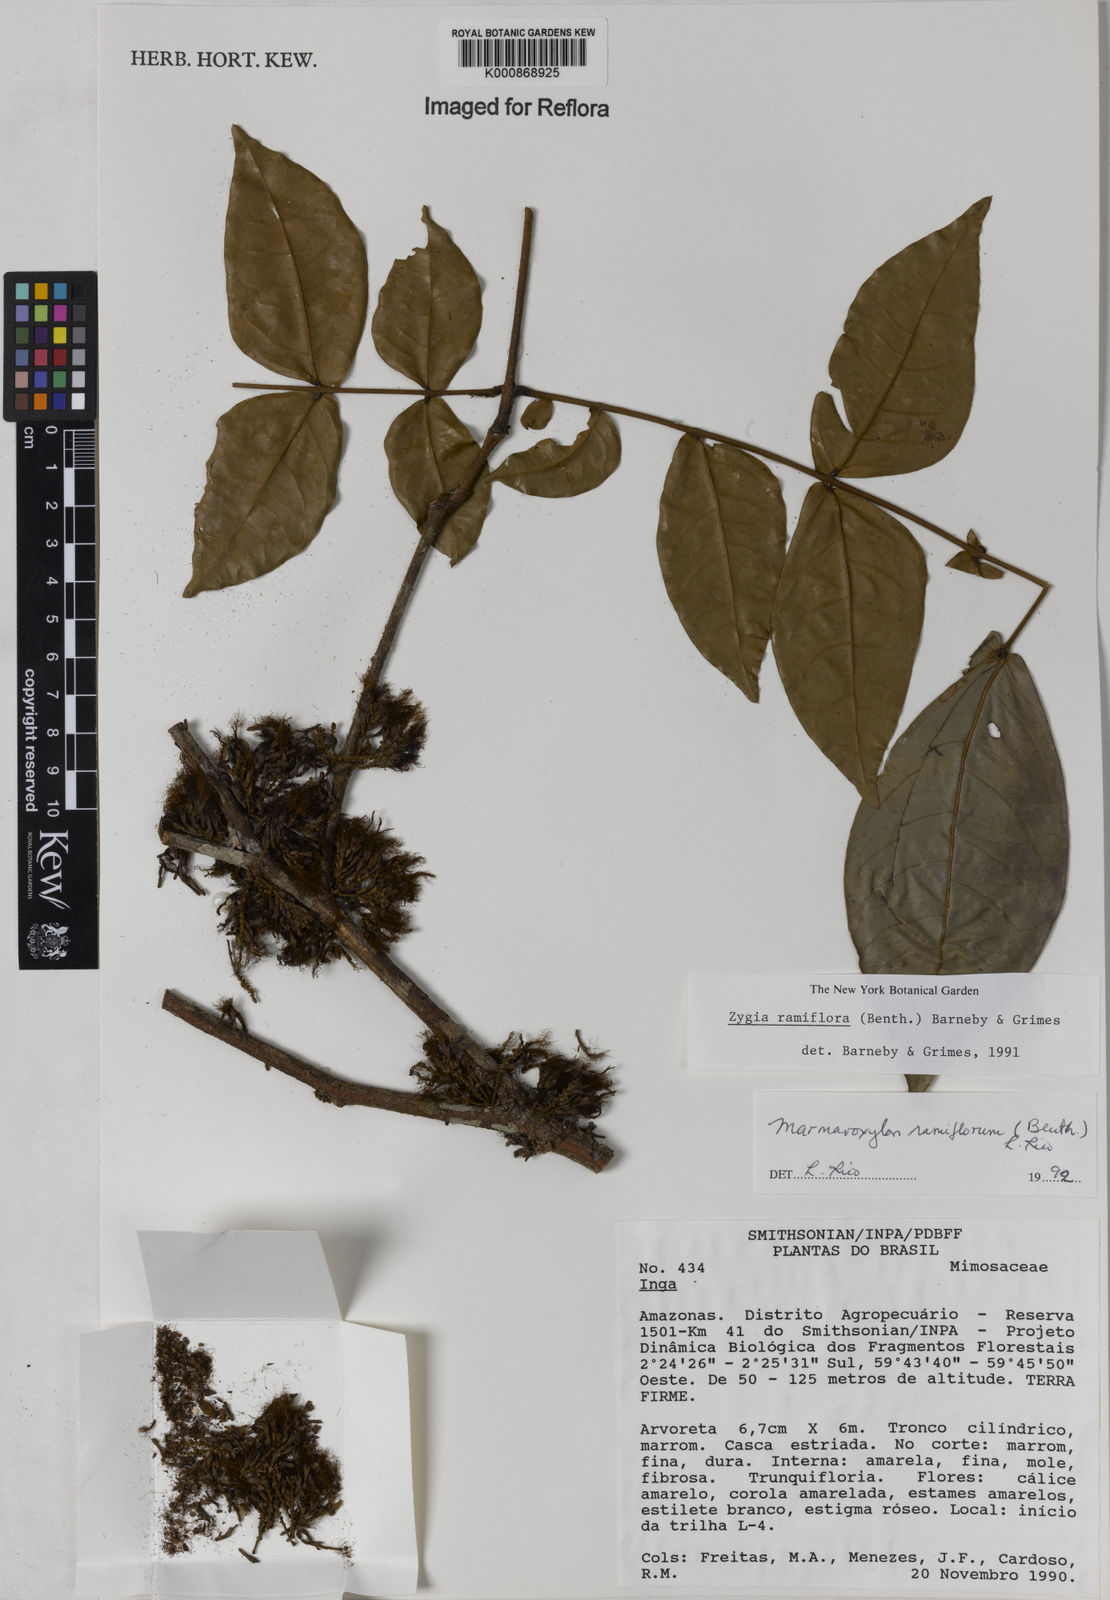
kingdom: Plantae
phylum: Tracheophyta
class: Magnoliopsida
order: Fabales
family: Fabaceae
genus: Zygia
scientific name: Zygia dinizii
